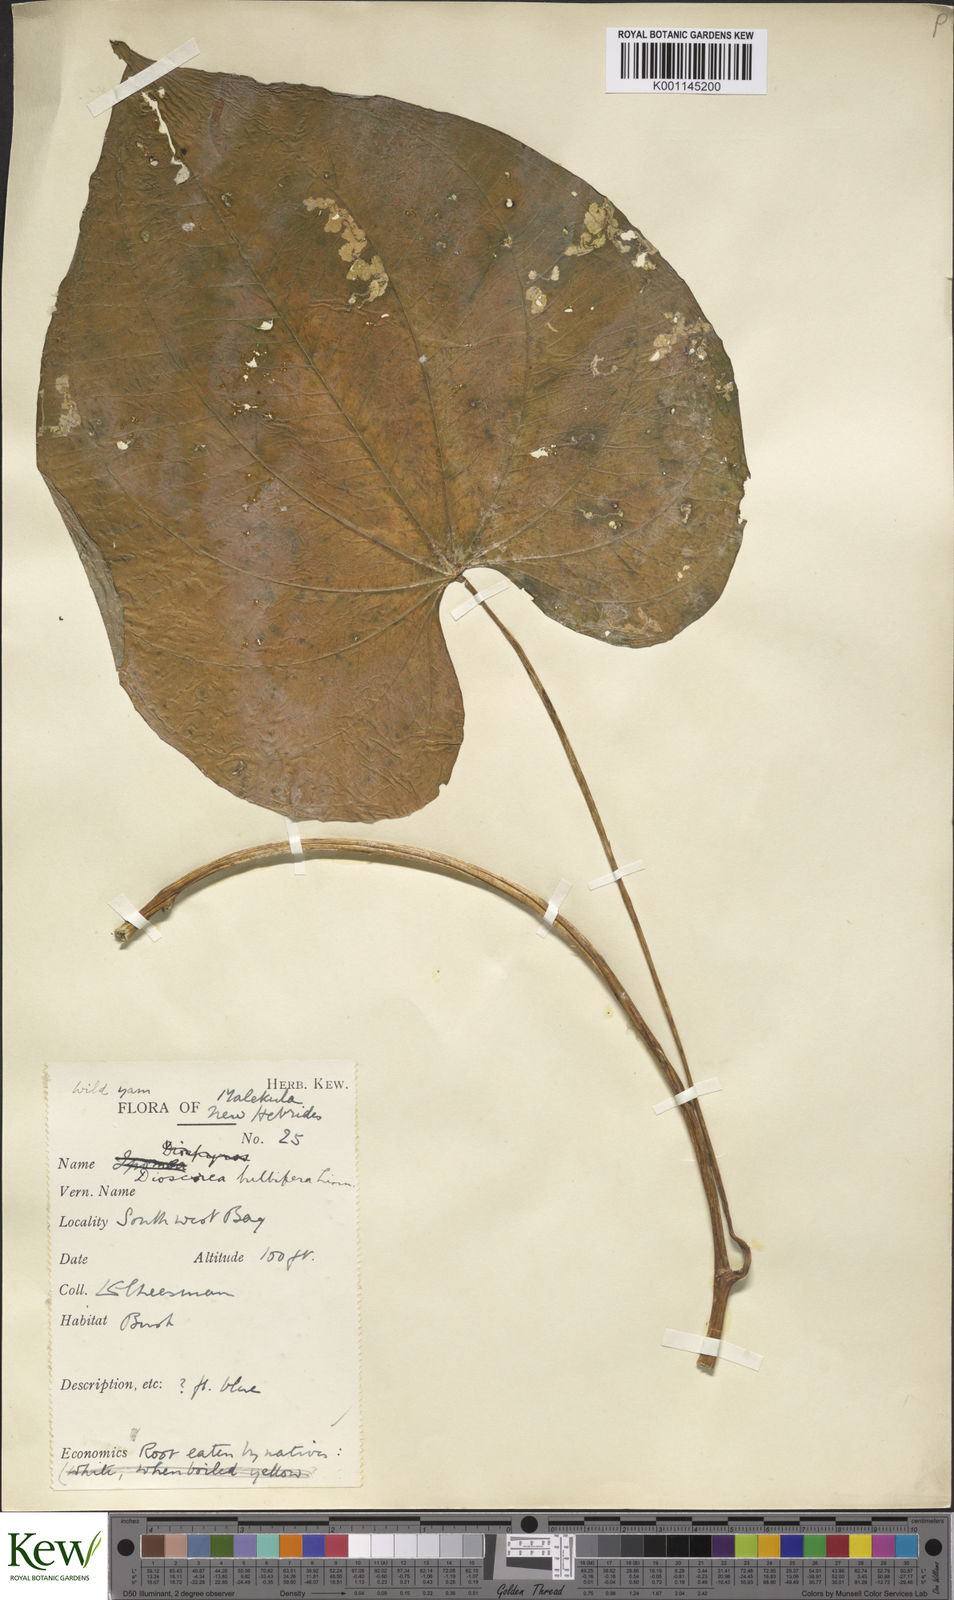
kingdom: Plantae
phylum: Tracheophyta
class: Liliopsida
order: Dioscoreales
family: Dioscoreaceae
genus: Dioscorea
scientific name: Dioscorea bulbifera
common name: Air yam
